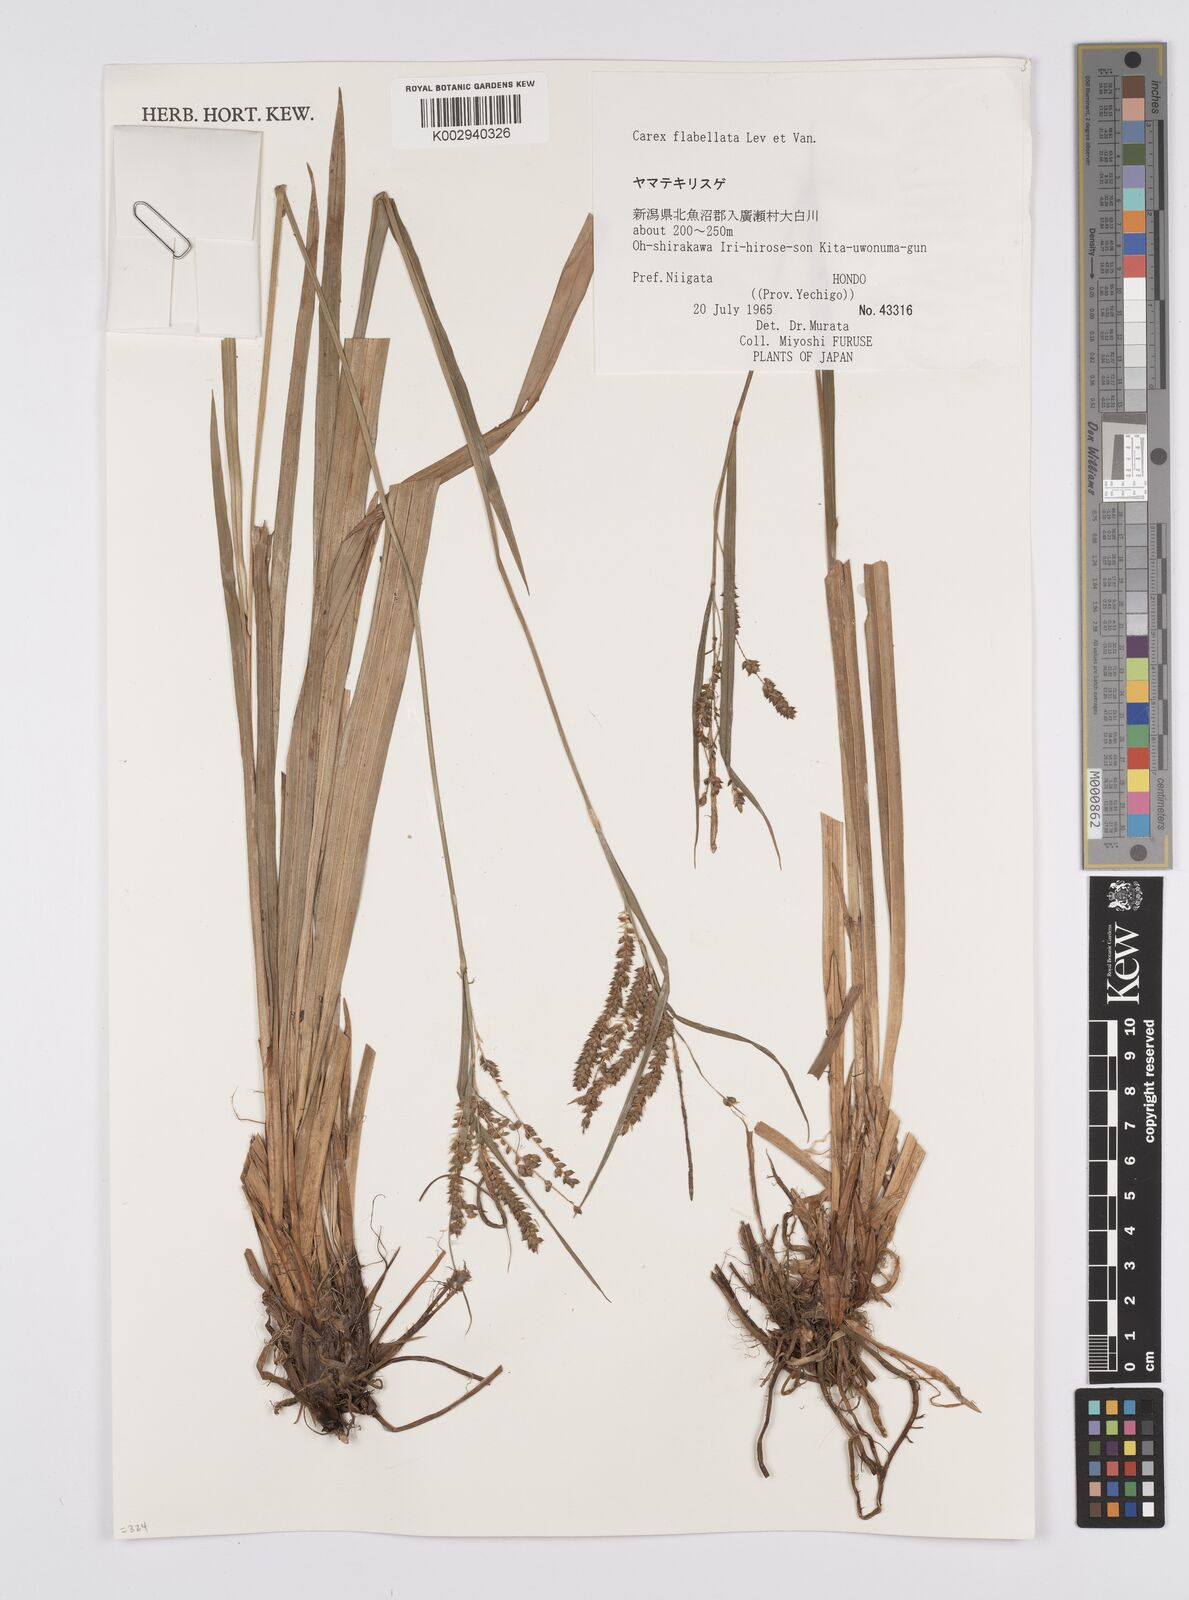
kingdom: Plantae
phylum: Tracheophyta
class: Liliopsida
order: Poales
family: Cyperaceae
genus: Carex
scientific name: Carex prescottiana
